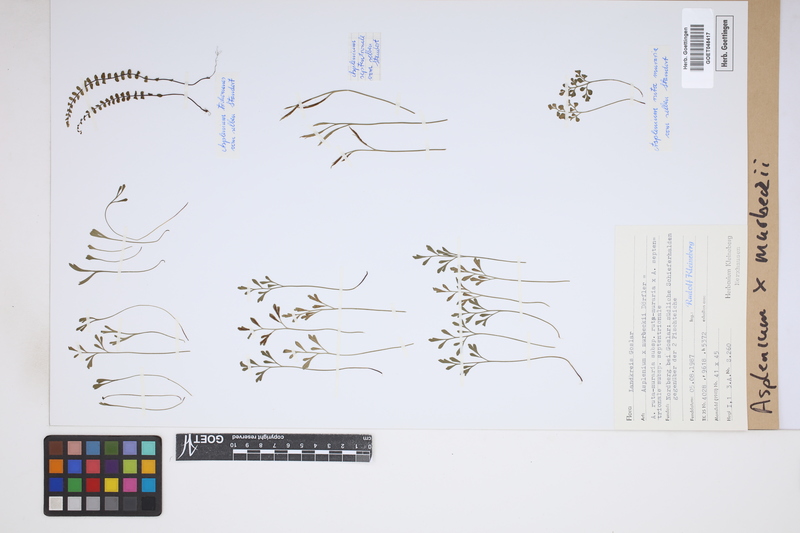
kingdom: Plantae
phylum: Tracheophyta
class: Polypodiopsida
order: Polypodiales
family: Aspleniaceae
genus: Asplenium
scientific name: Asplenium trichomanes
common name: Maidenhair spleenwort
